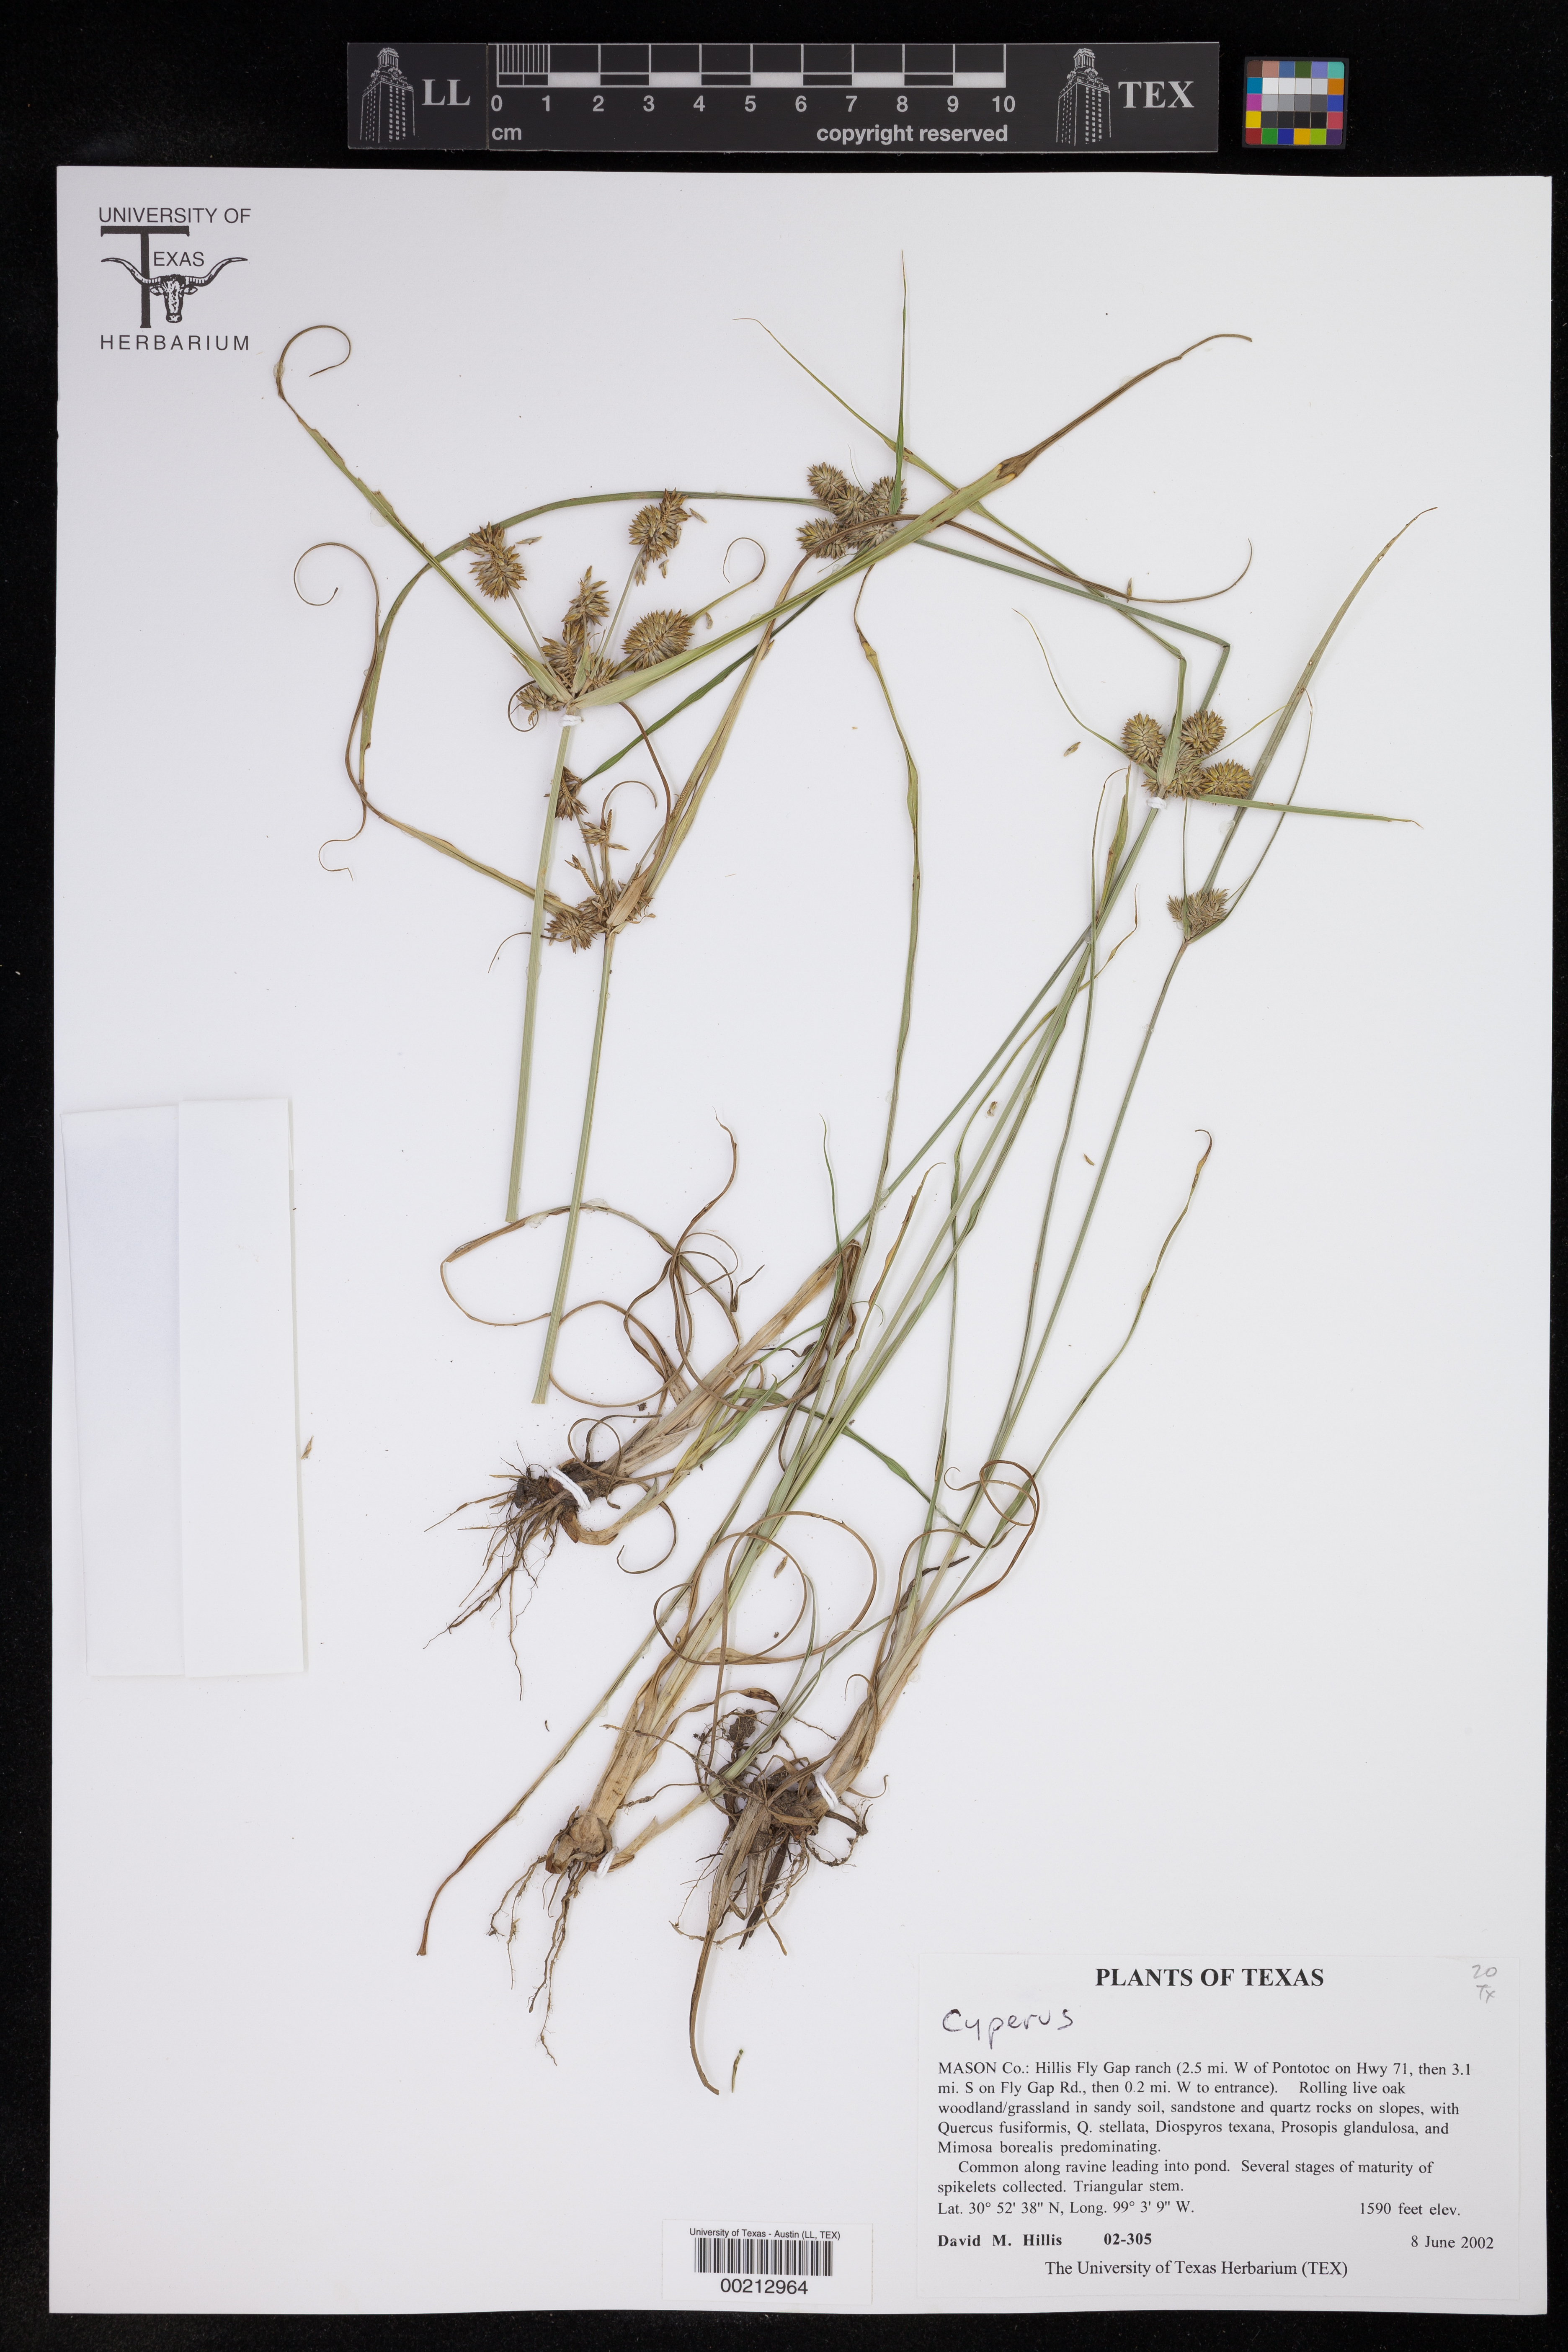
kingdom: Plantae
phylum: Tracheophyta
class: Liliopsida
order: Poales
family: Cyperaceae
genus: Cyperus
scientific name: Cyperus
